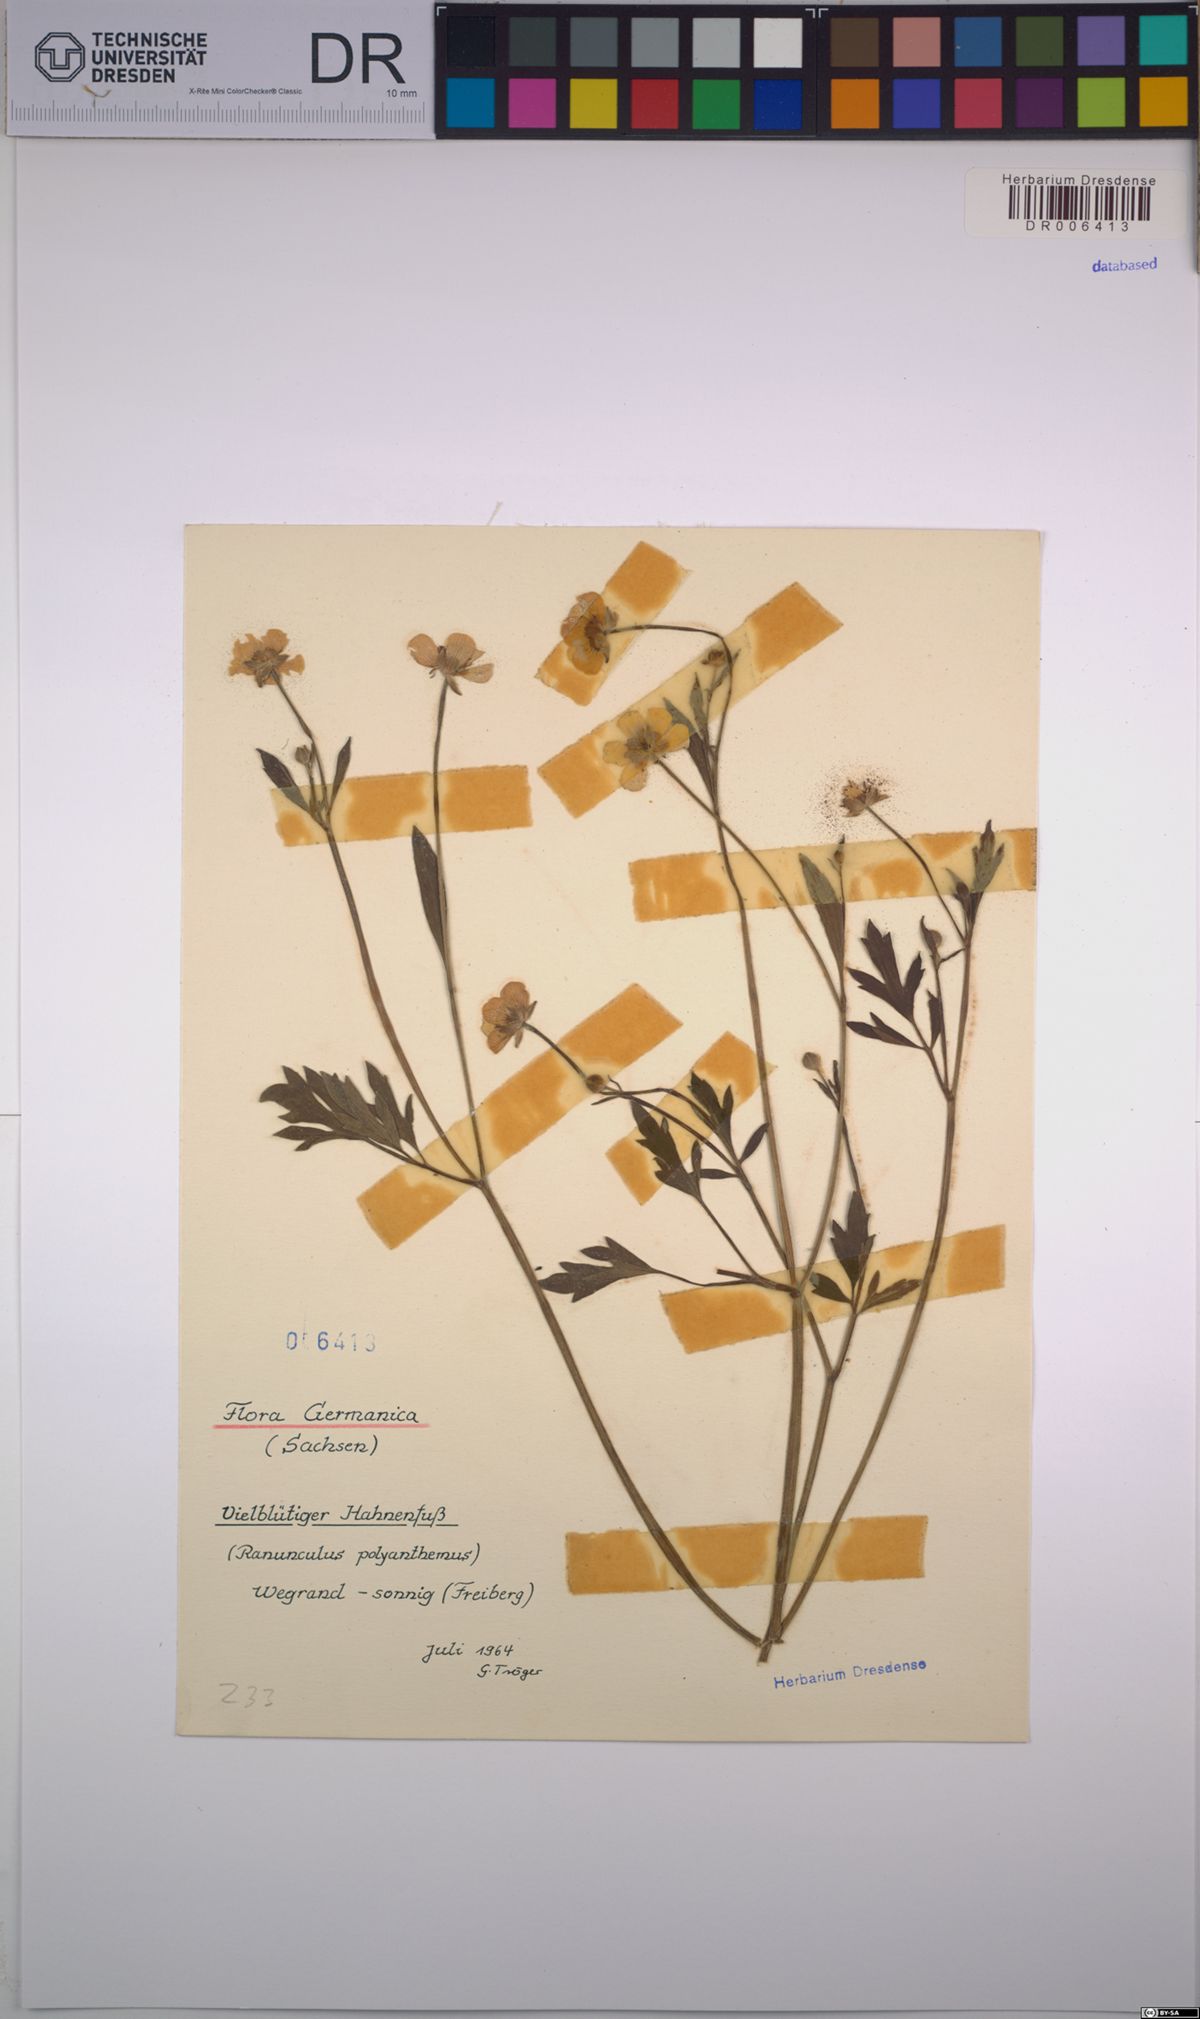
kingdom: Plantae
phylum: Tracheophyta
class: Magnoliopsida
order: Ranunculales
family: Ranunculaceae
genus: Ranunculus
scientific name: Ranunculus polyanthemos
